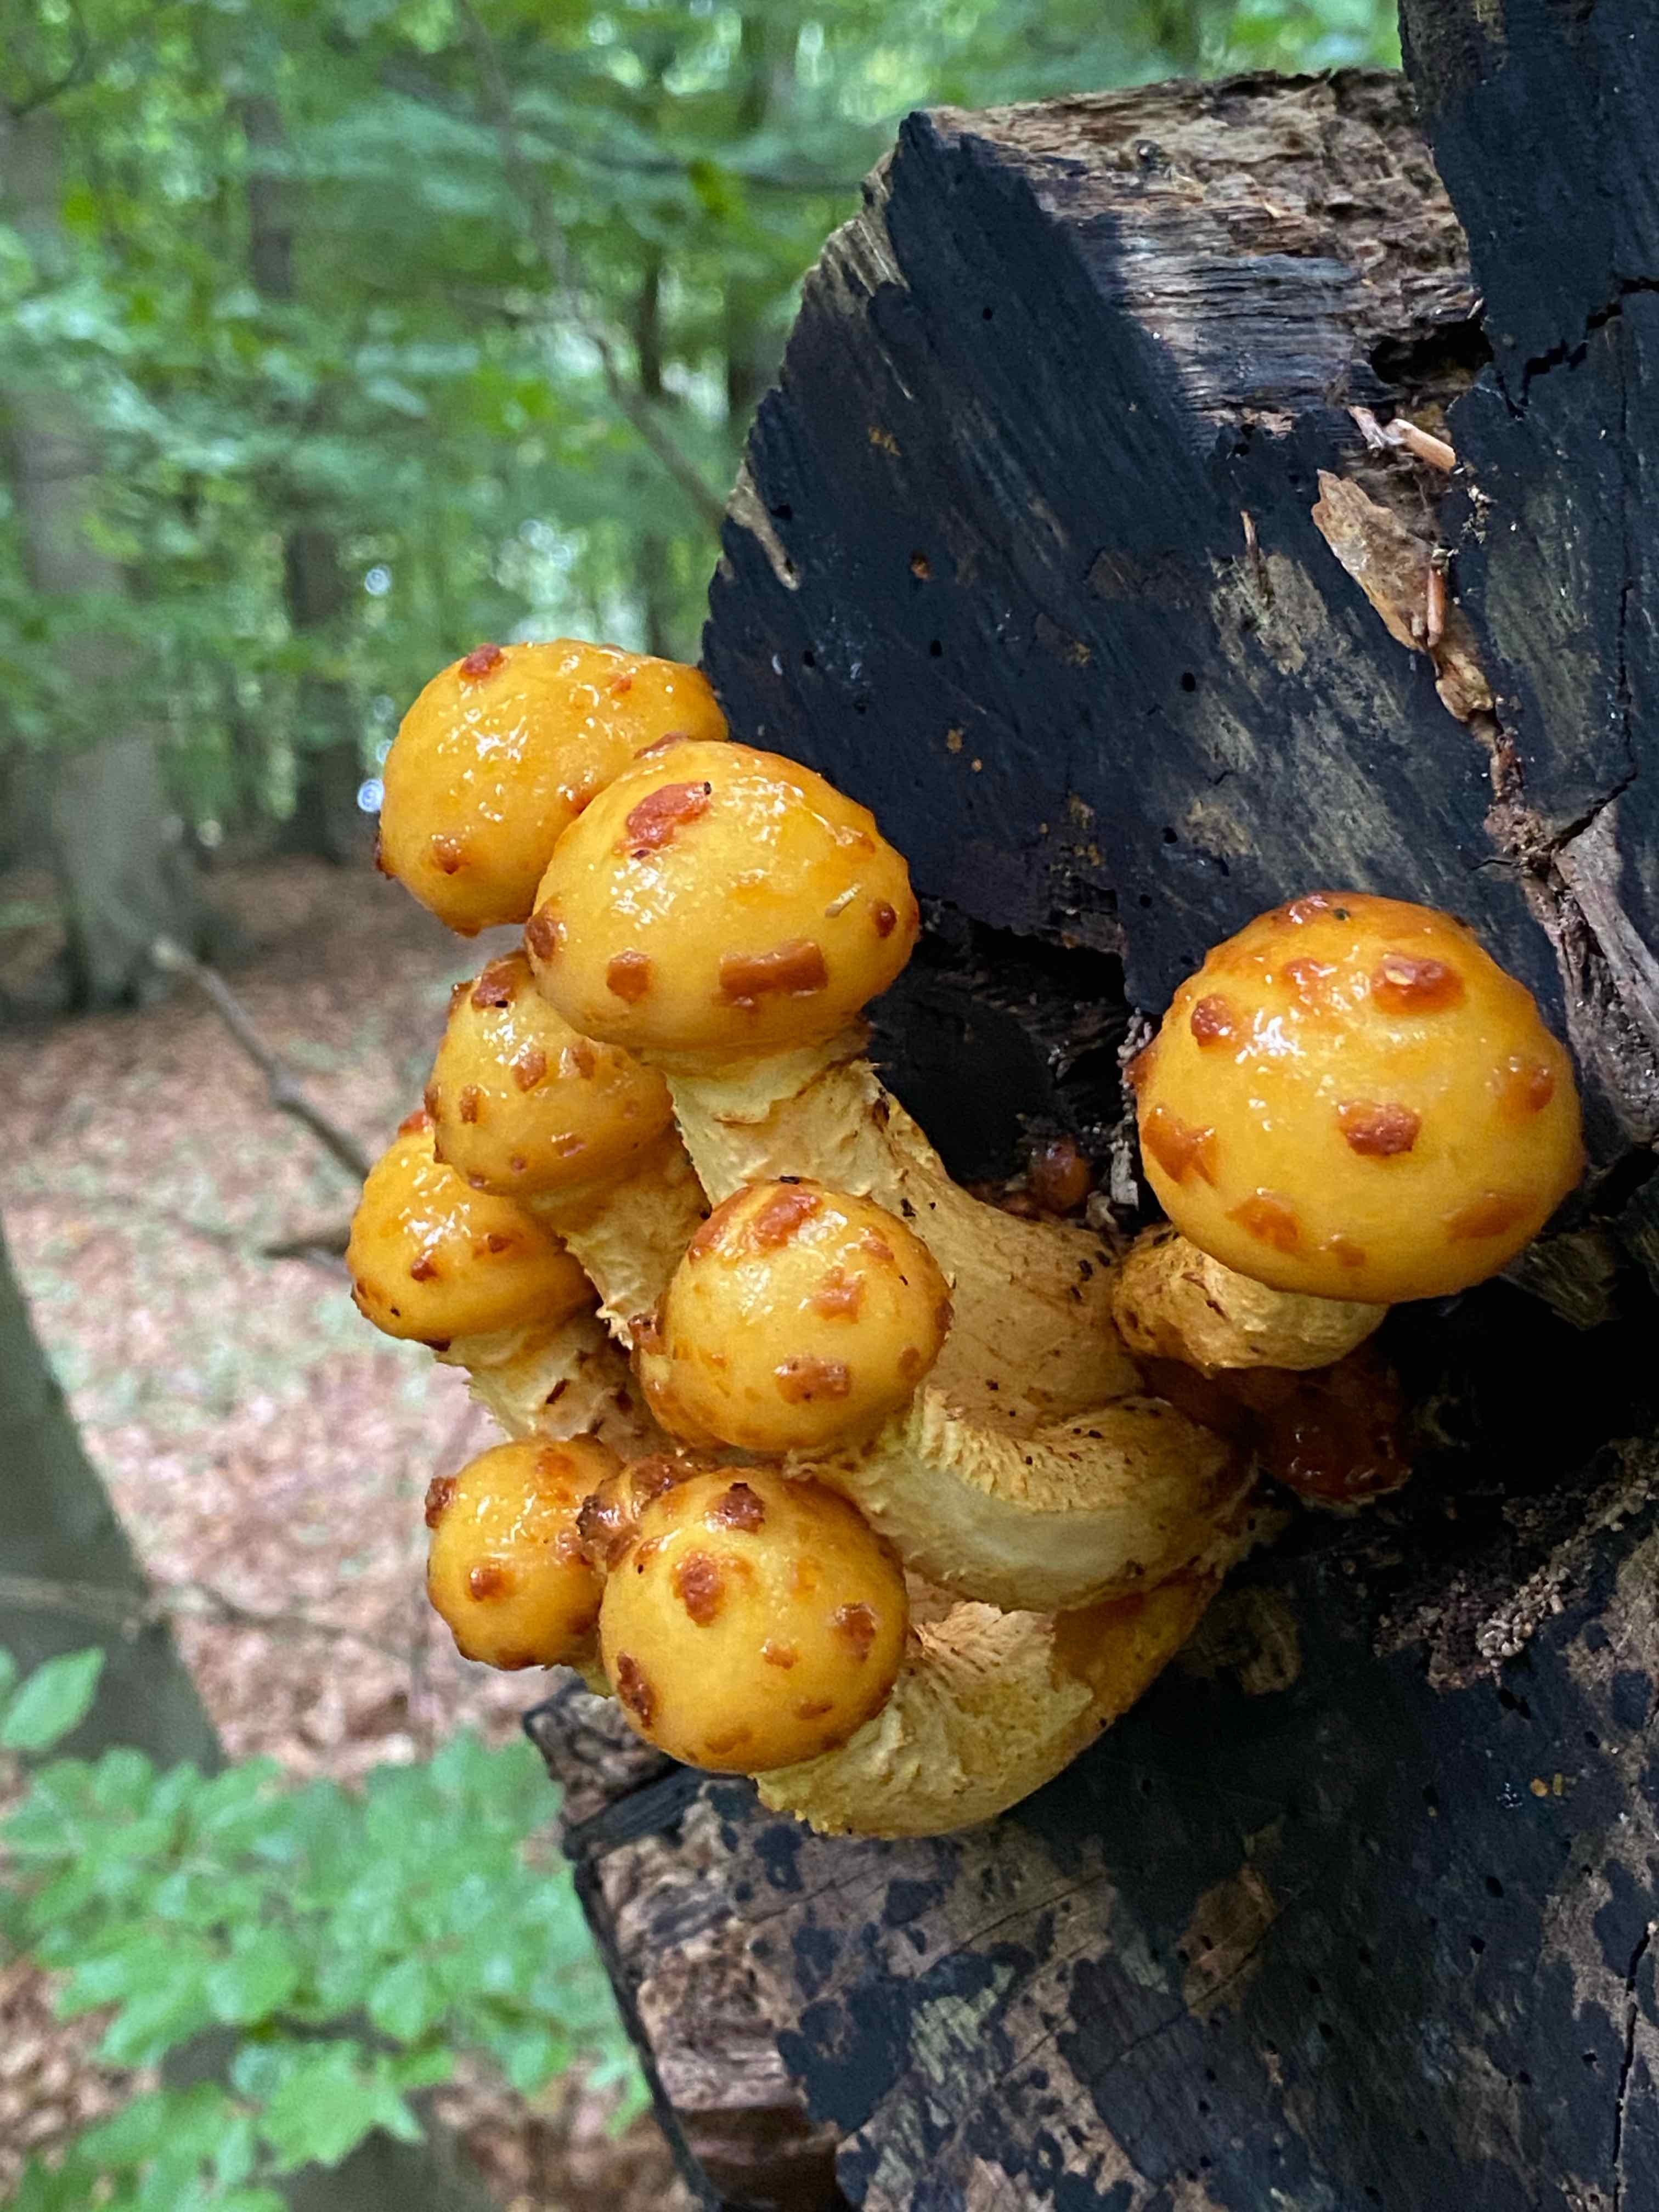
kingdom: Fungi
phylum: Basidiomycota
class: Agaricomycetes
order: Agaricales
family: Strophariaceae
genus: Pholiota
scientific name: Pholiota adiposa
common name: højtsiddende skælhat
